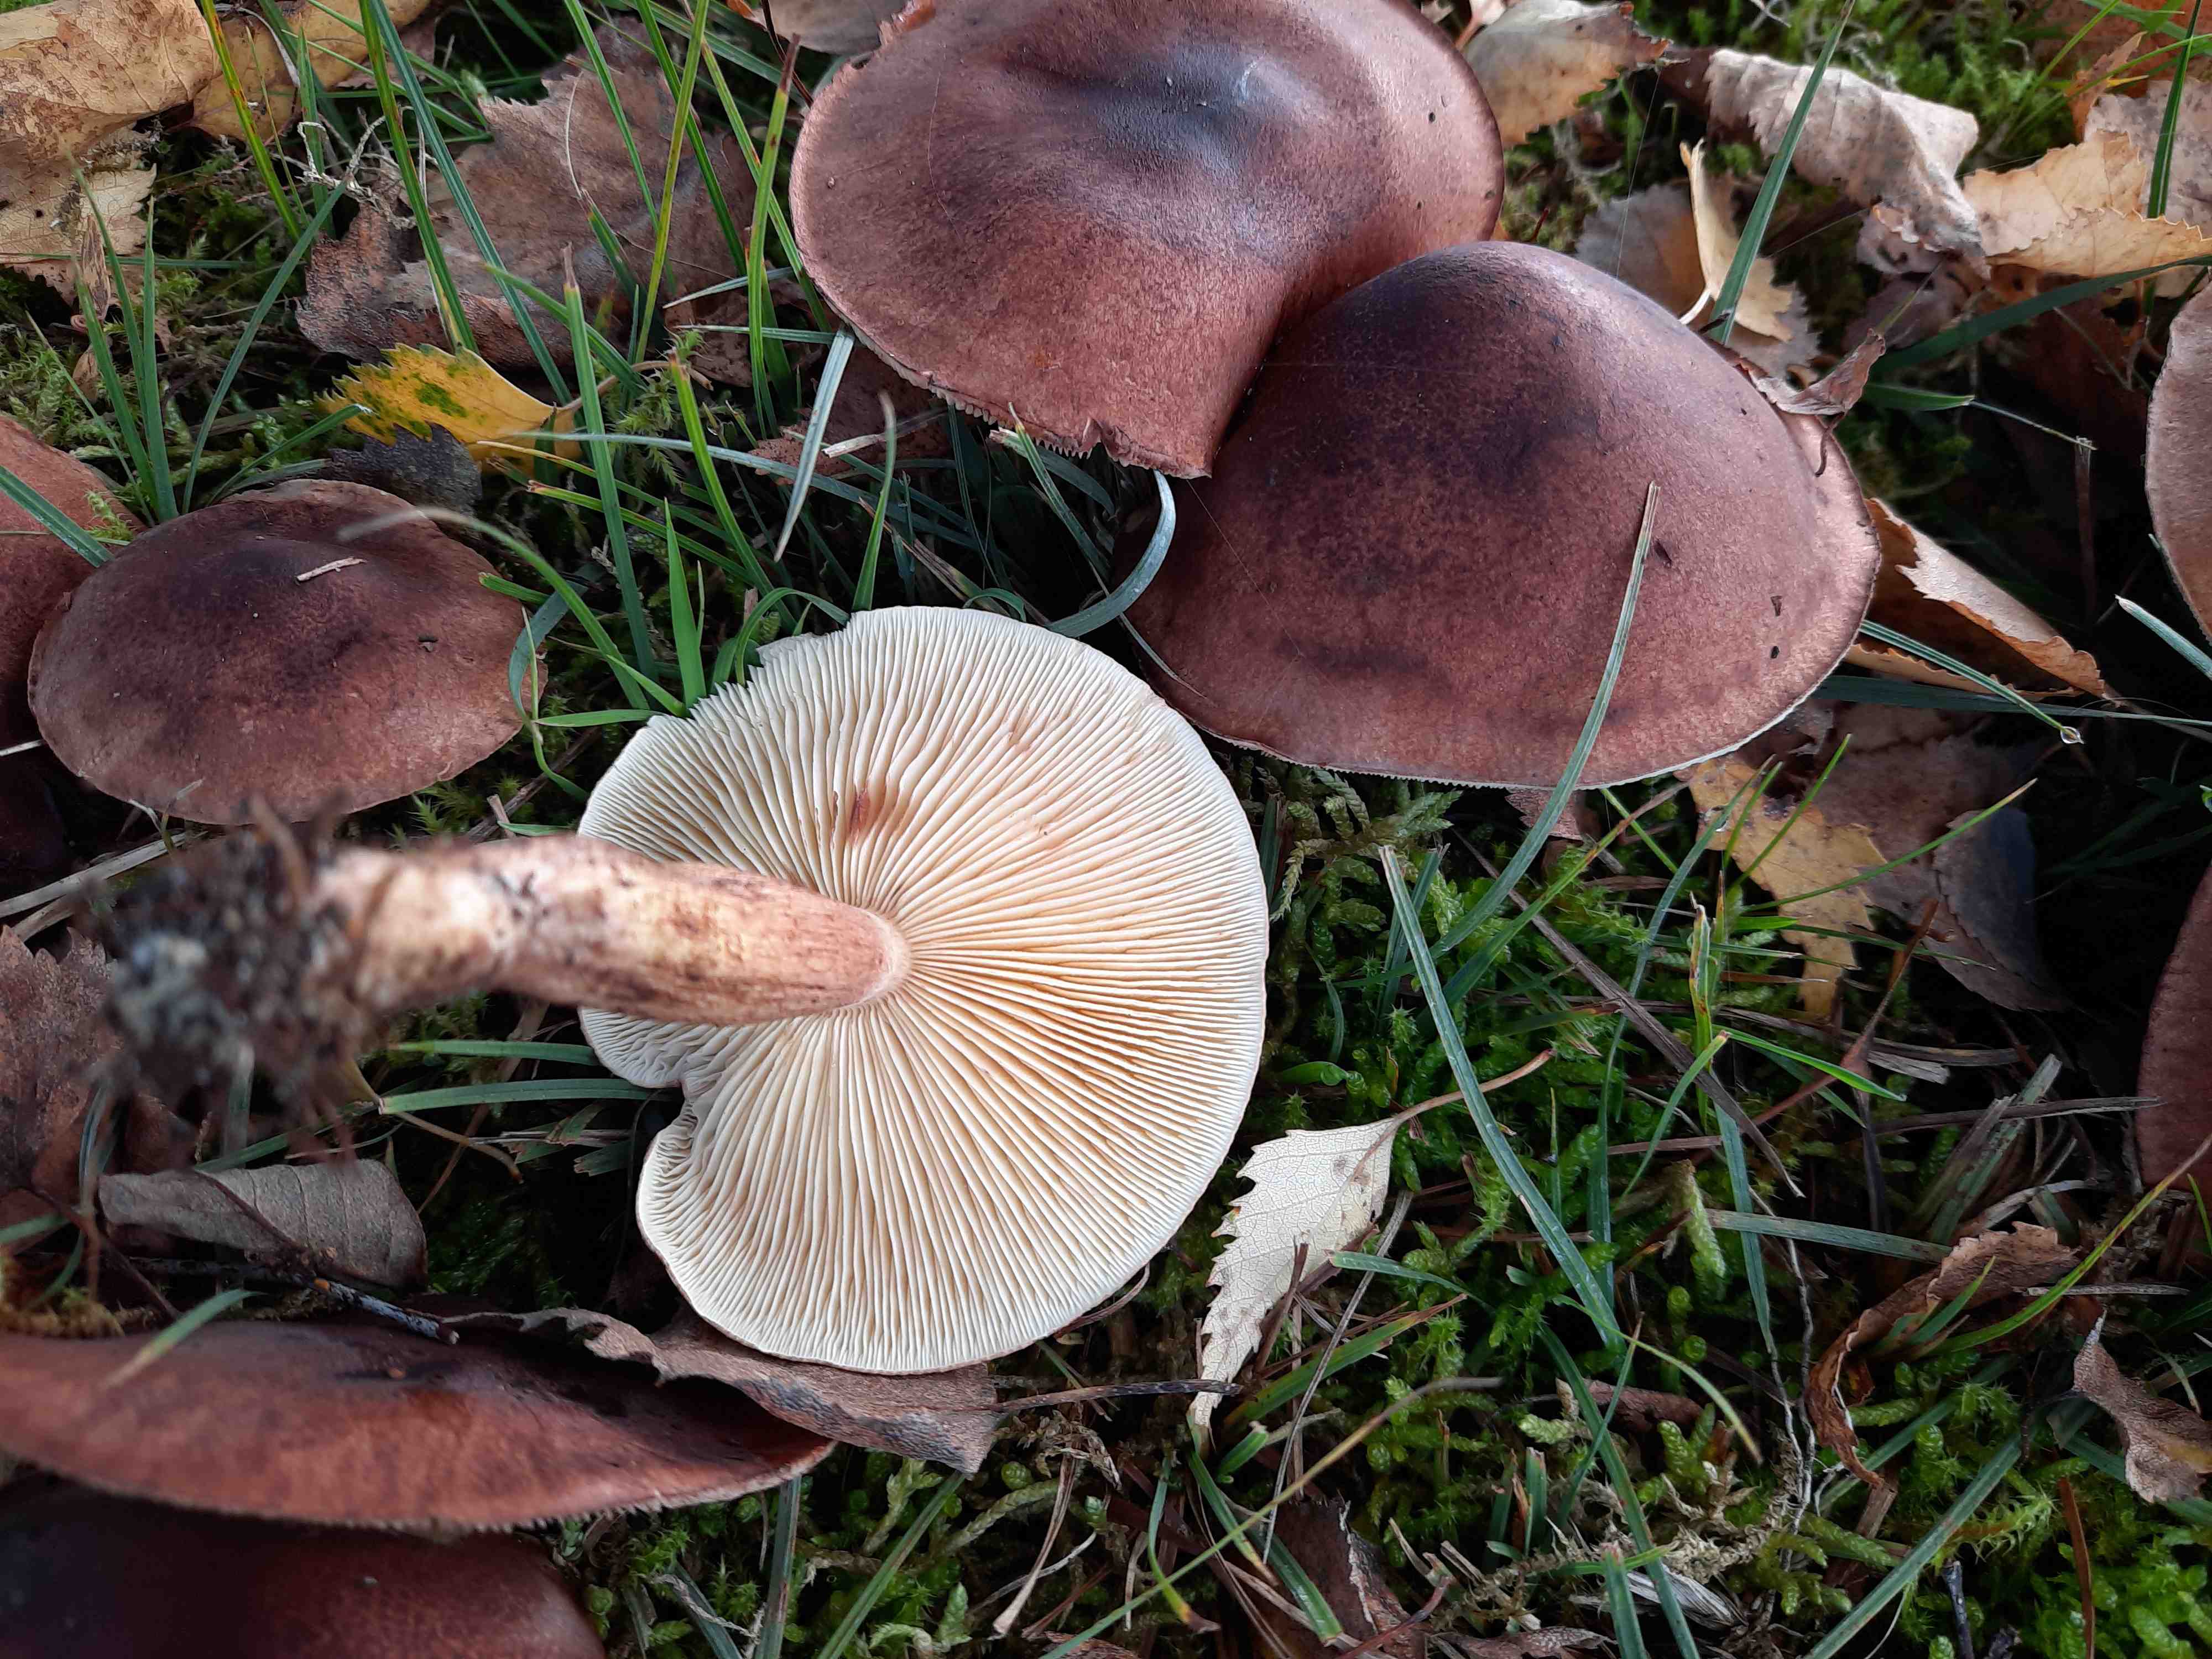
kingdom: Fungi
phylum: Basidiomycota
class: Agaricomycetes
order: Agaricales
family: Tricholomataceae
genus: Tricholoma
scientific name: Tricholoma fulvum
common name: birke-ridderhat
